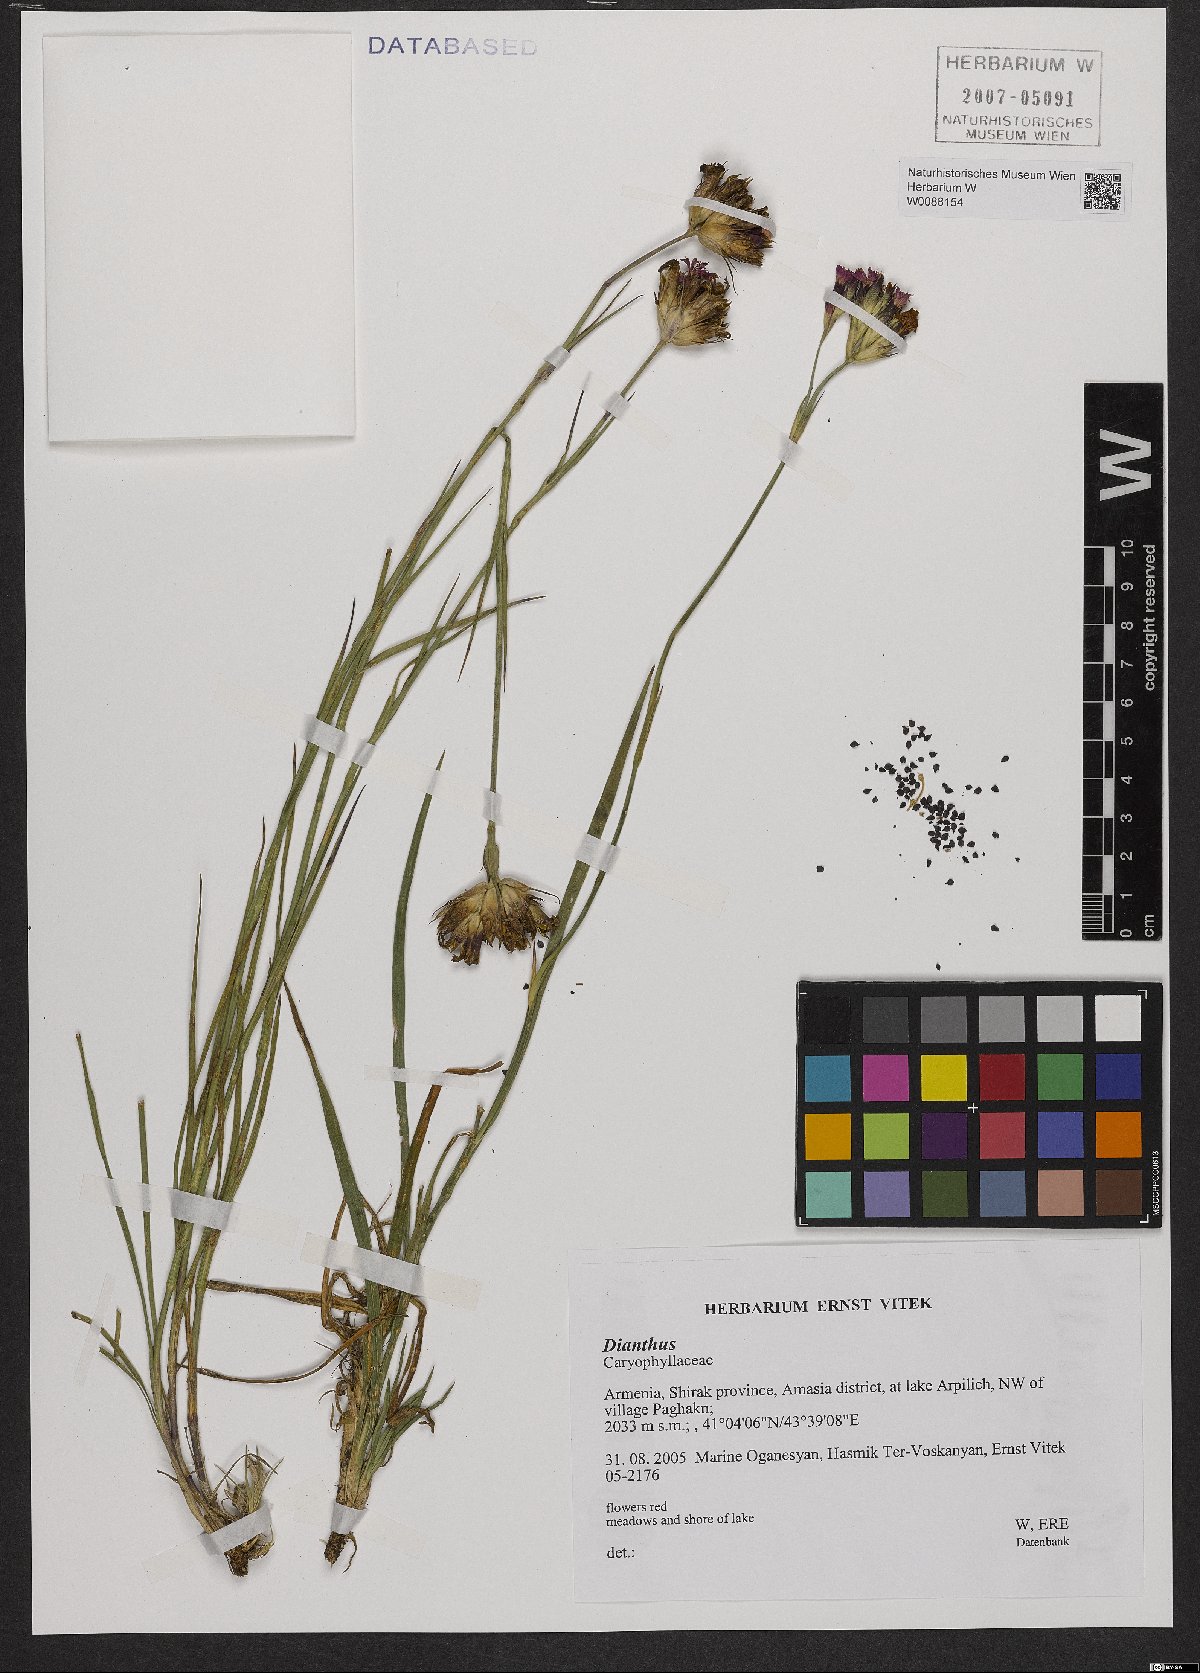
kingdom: Plantae
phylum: Tracheophyta
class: Magnoliopsida
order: Caryophyllales
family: Caryophyllaceae
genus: Dianthus
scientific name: Dianthus
